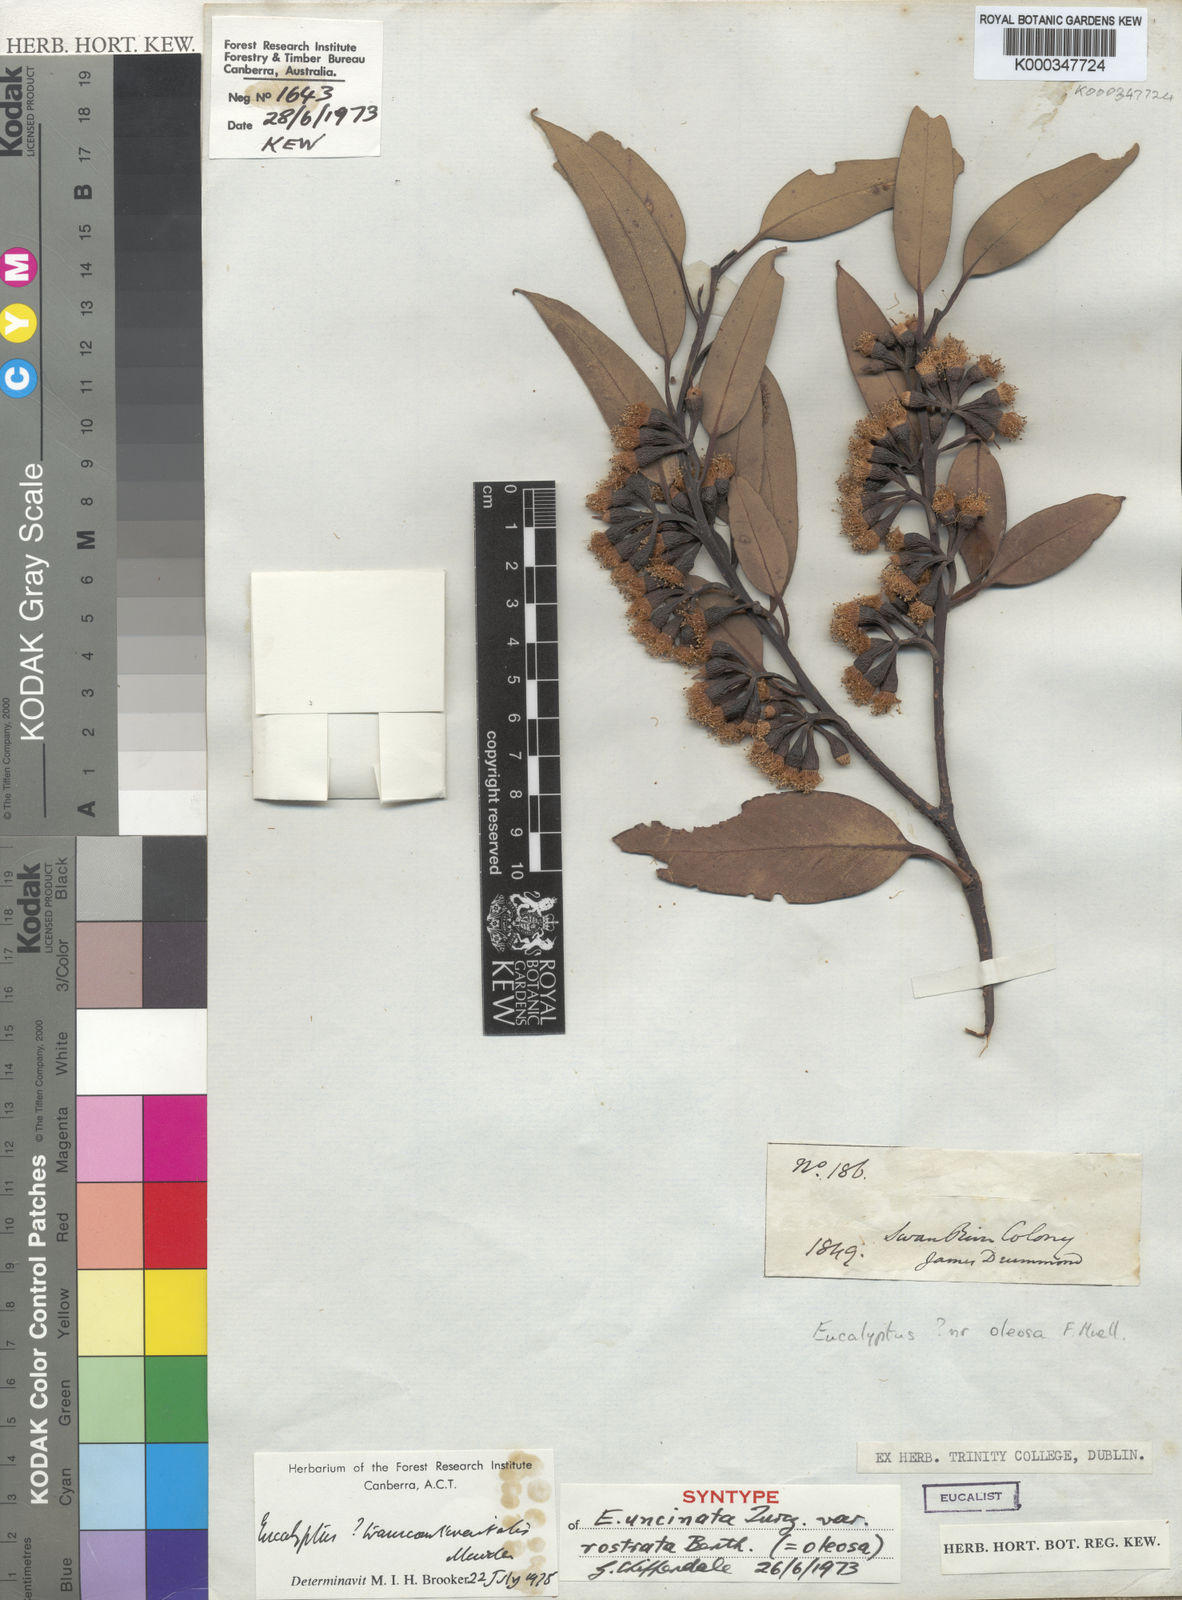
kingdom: Plantae
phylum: Tracheophyta
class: Magnoliopsida
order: Myrtales
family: Myrtaceae
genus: Eucalyptus
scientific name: Eucalyptus
